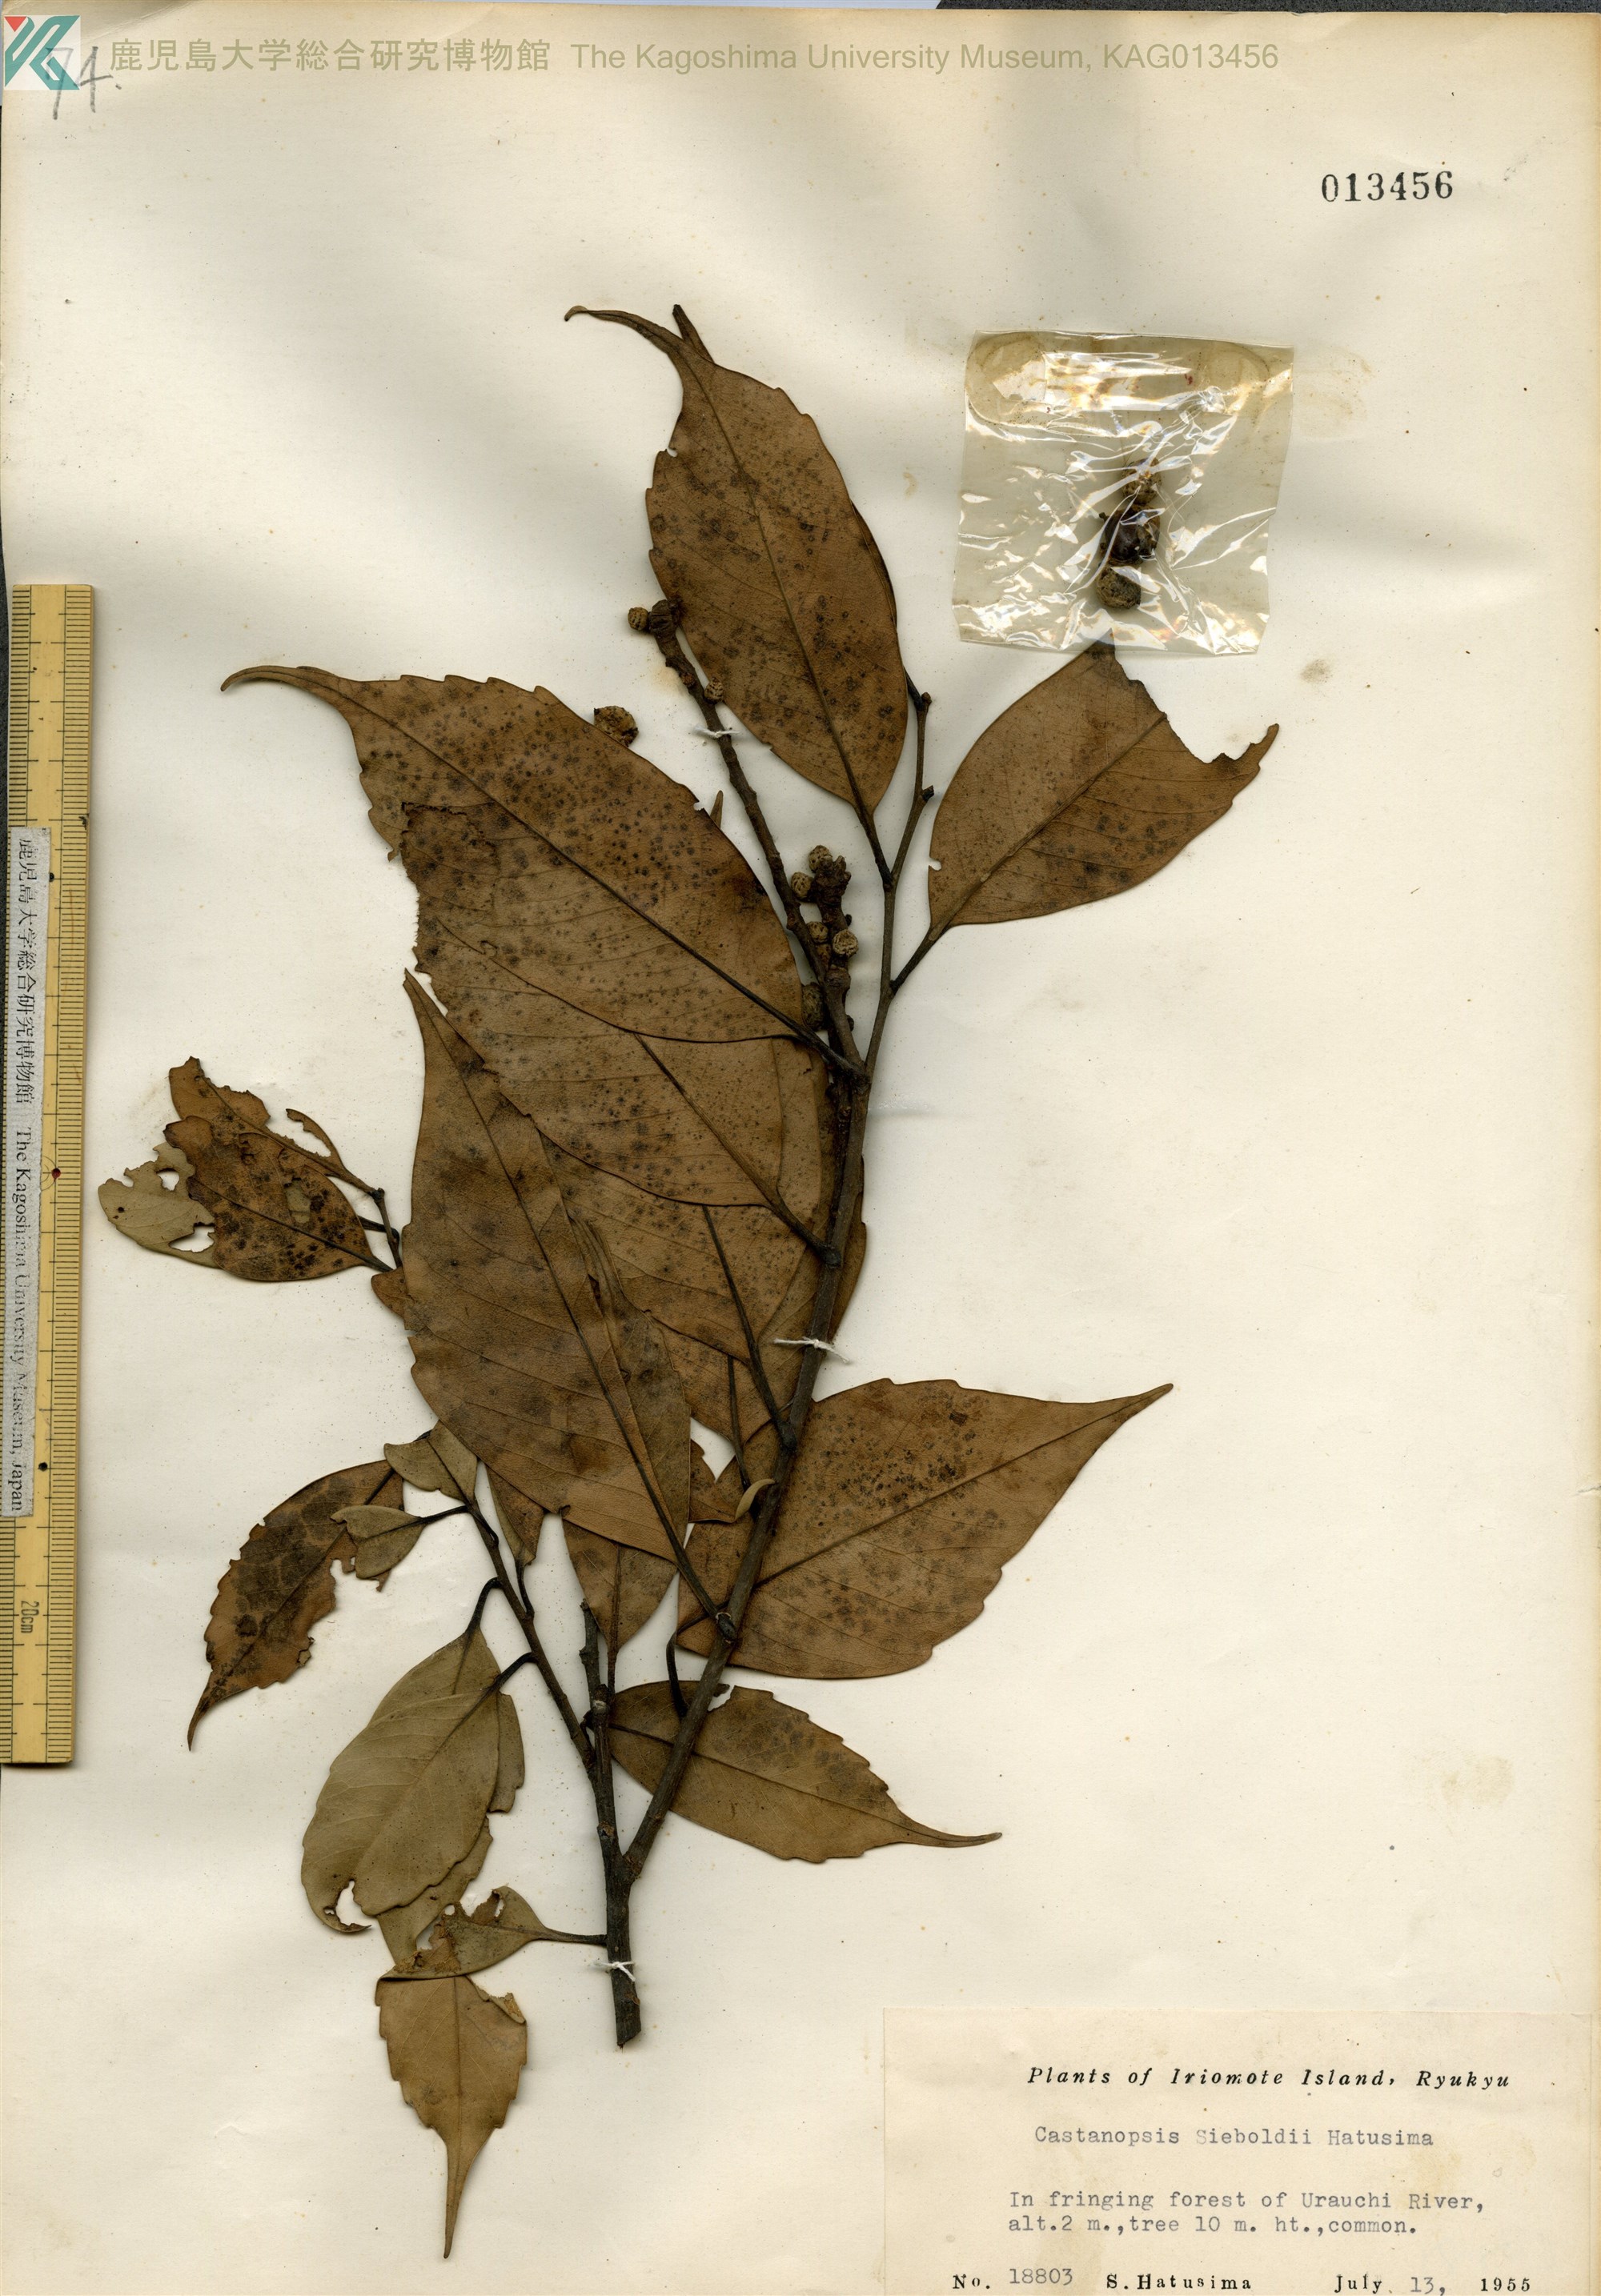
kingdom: Plantae
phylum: Tracheophyta
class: Magnoliopsida
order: Fagales
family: Fagaceae
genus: Castanopsis
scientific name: Castanopsis sieboldii
